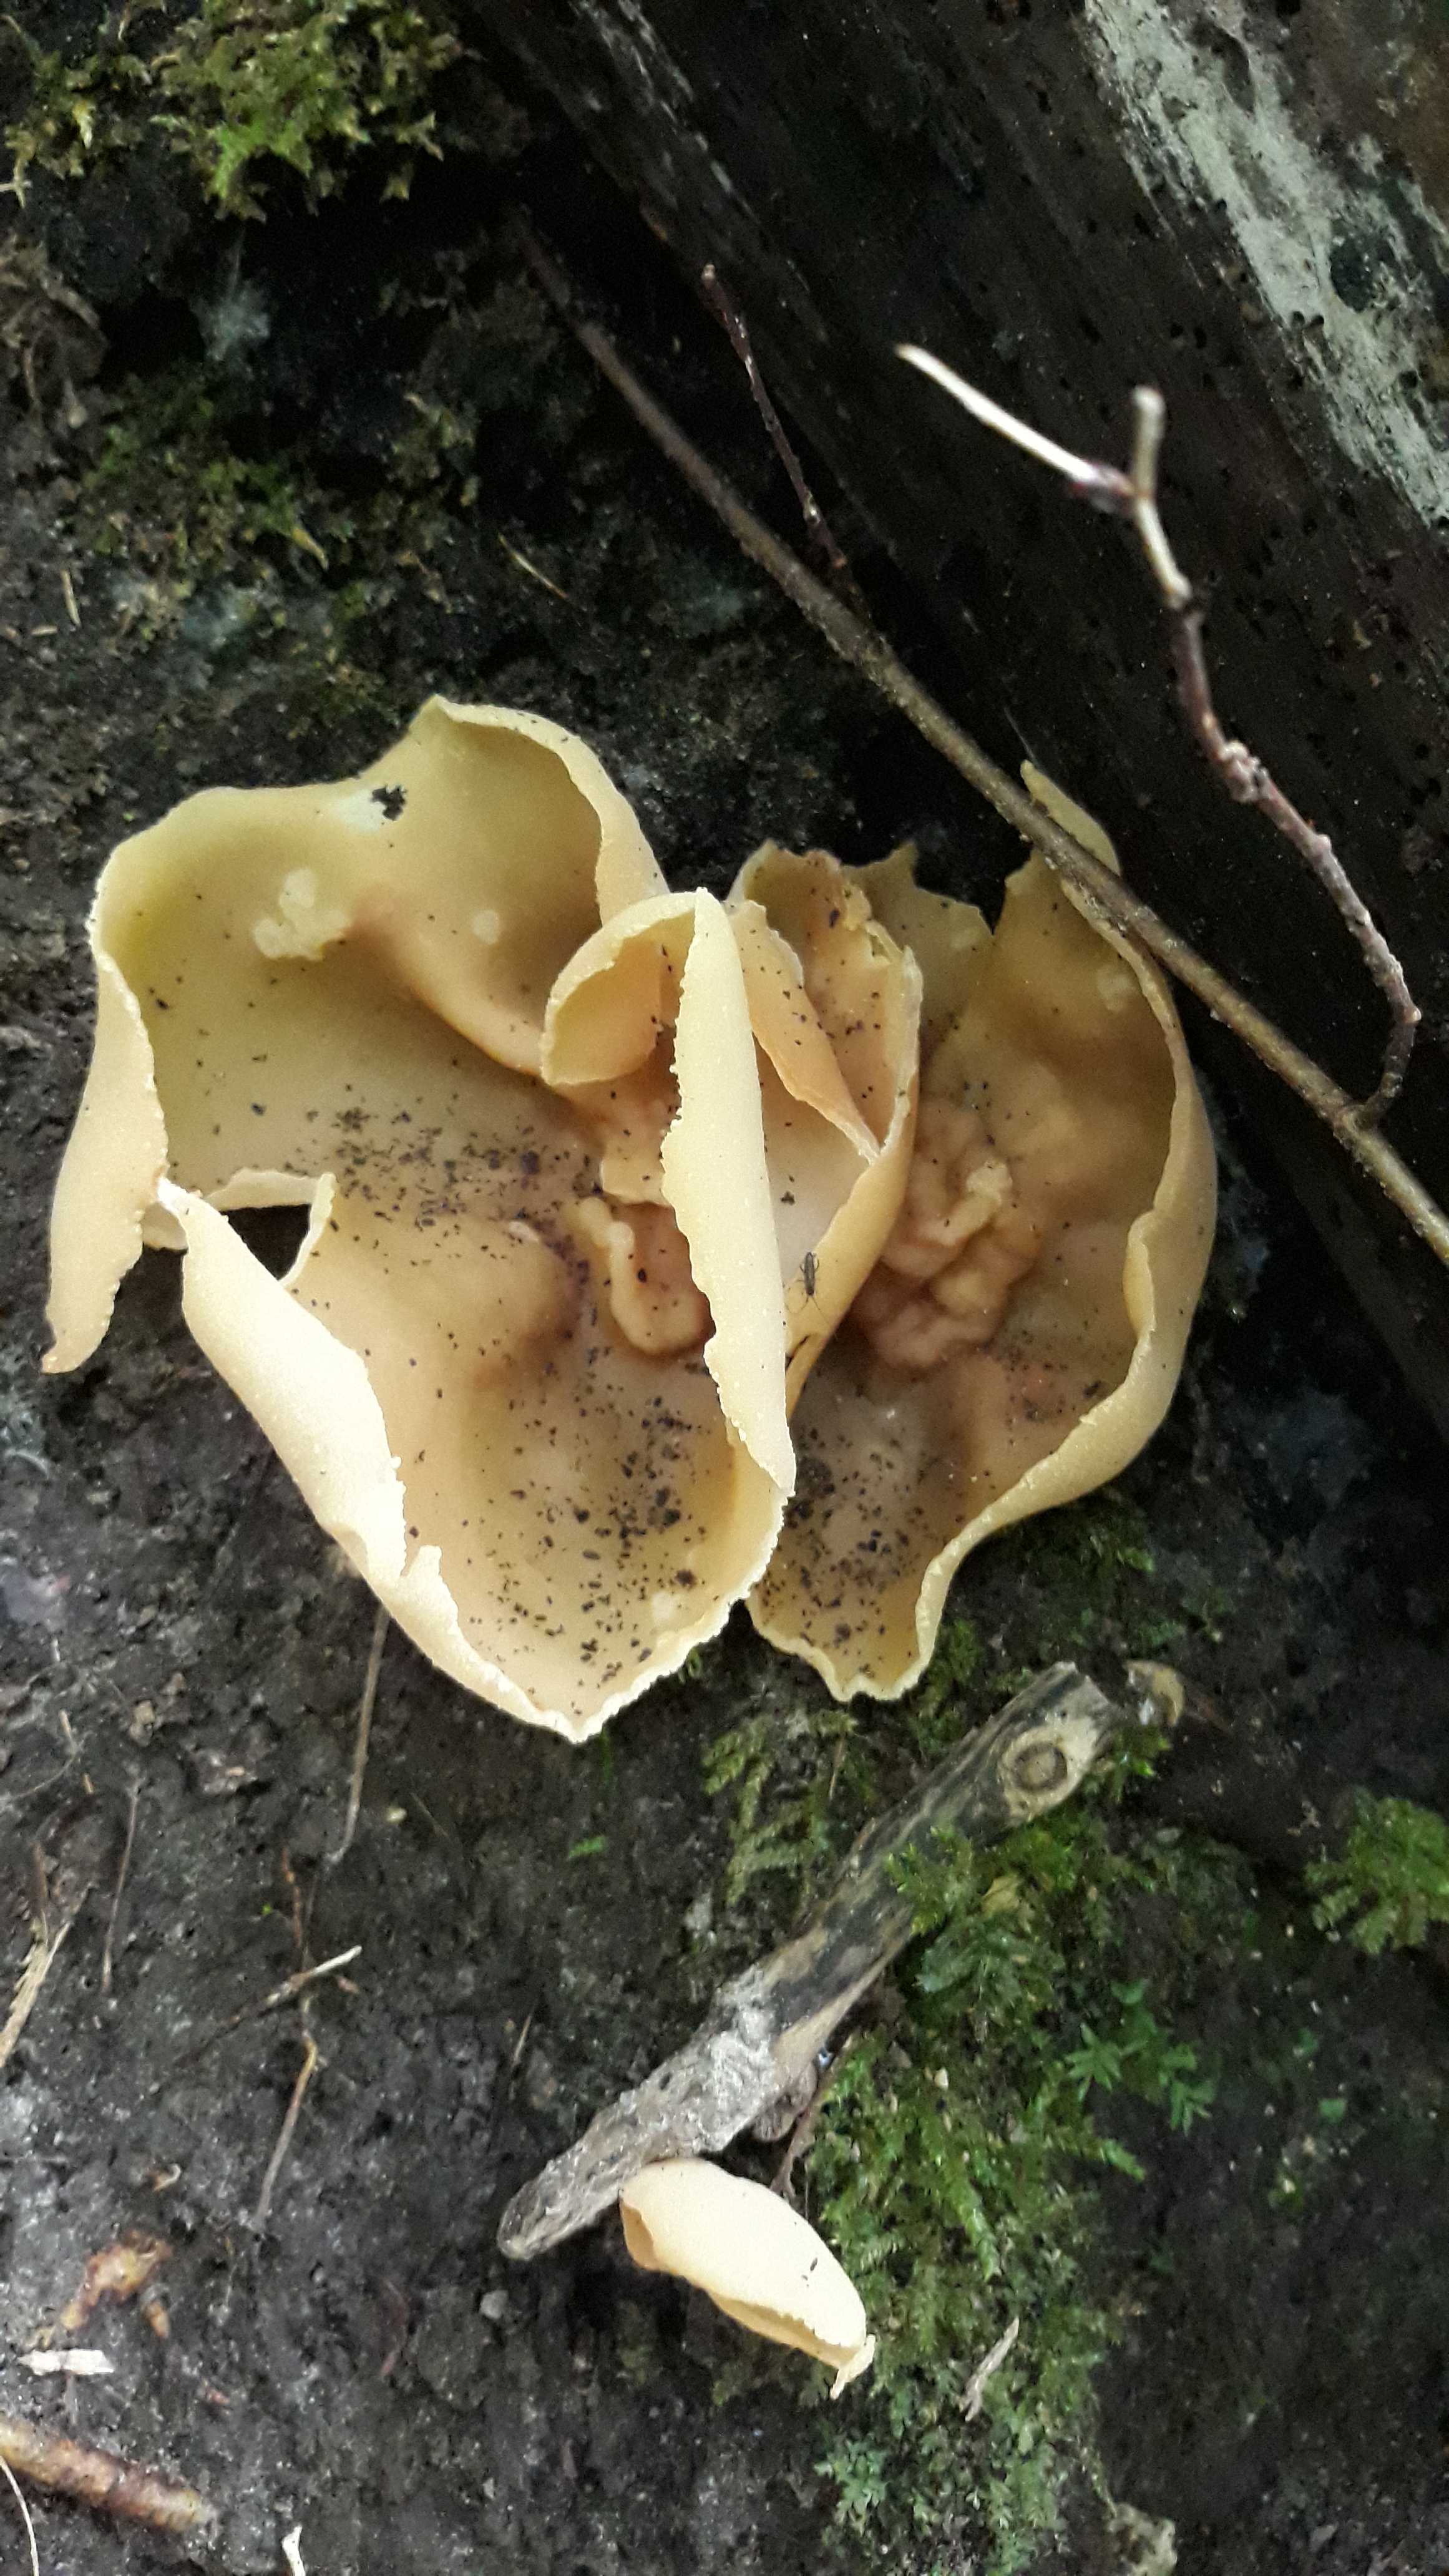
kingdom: Fungi
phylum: Ascomycota
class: Pezizomycetes
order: Pezizales
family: Pezizaceae
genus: Peziza
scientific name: Peziza
